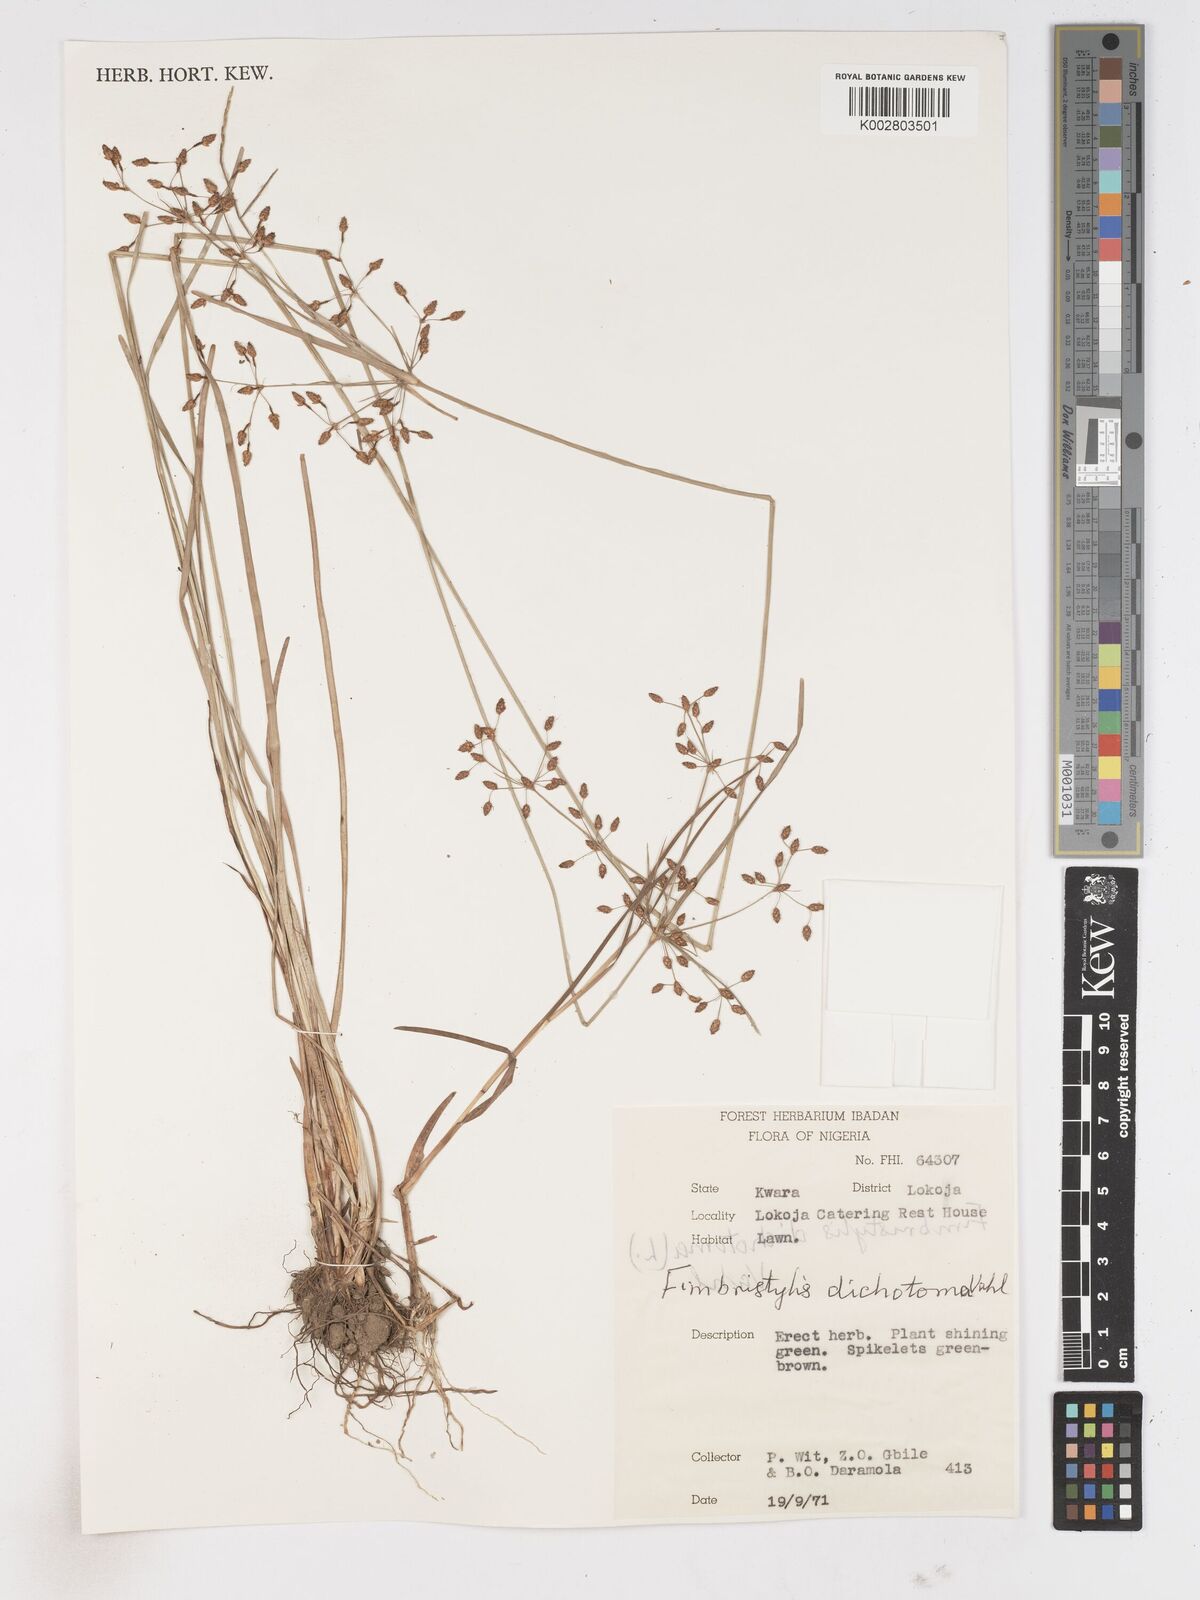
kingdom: Plantae
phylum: Tracheophyta
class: Liliopsida
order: Poales
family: Cyperaceae
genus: Fimbristylis
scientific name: Fimbristylis dichotoma
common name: Forked fimbry
